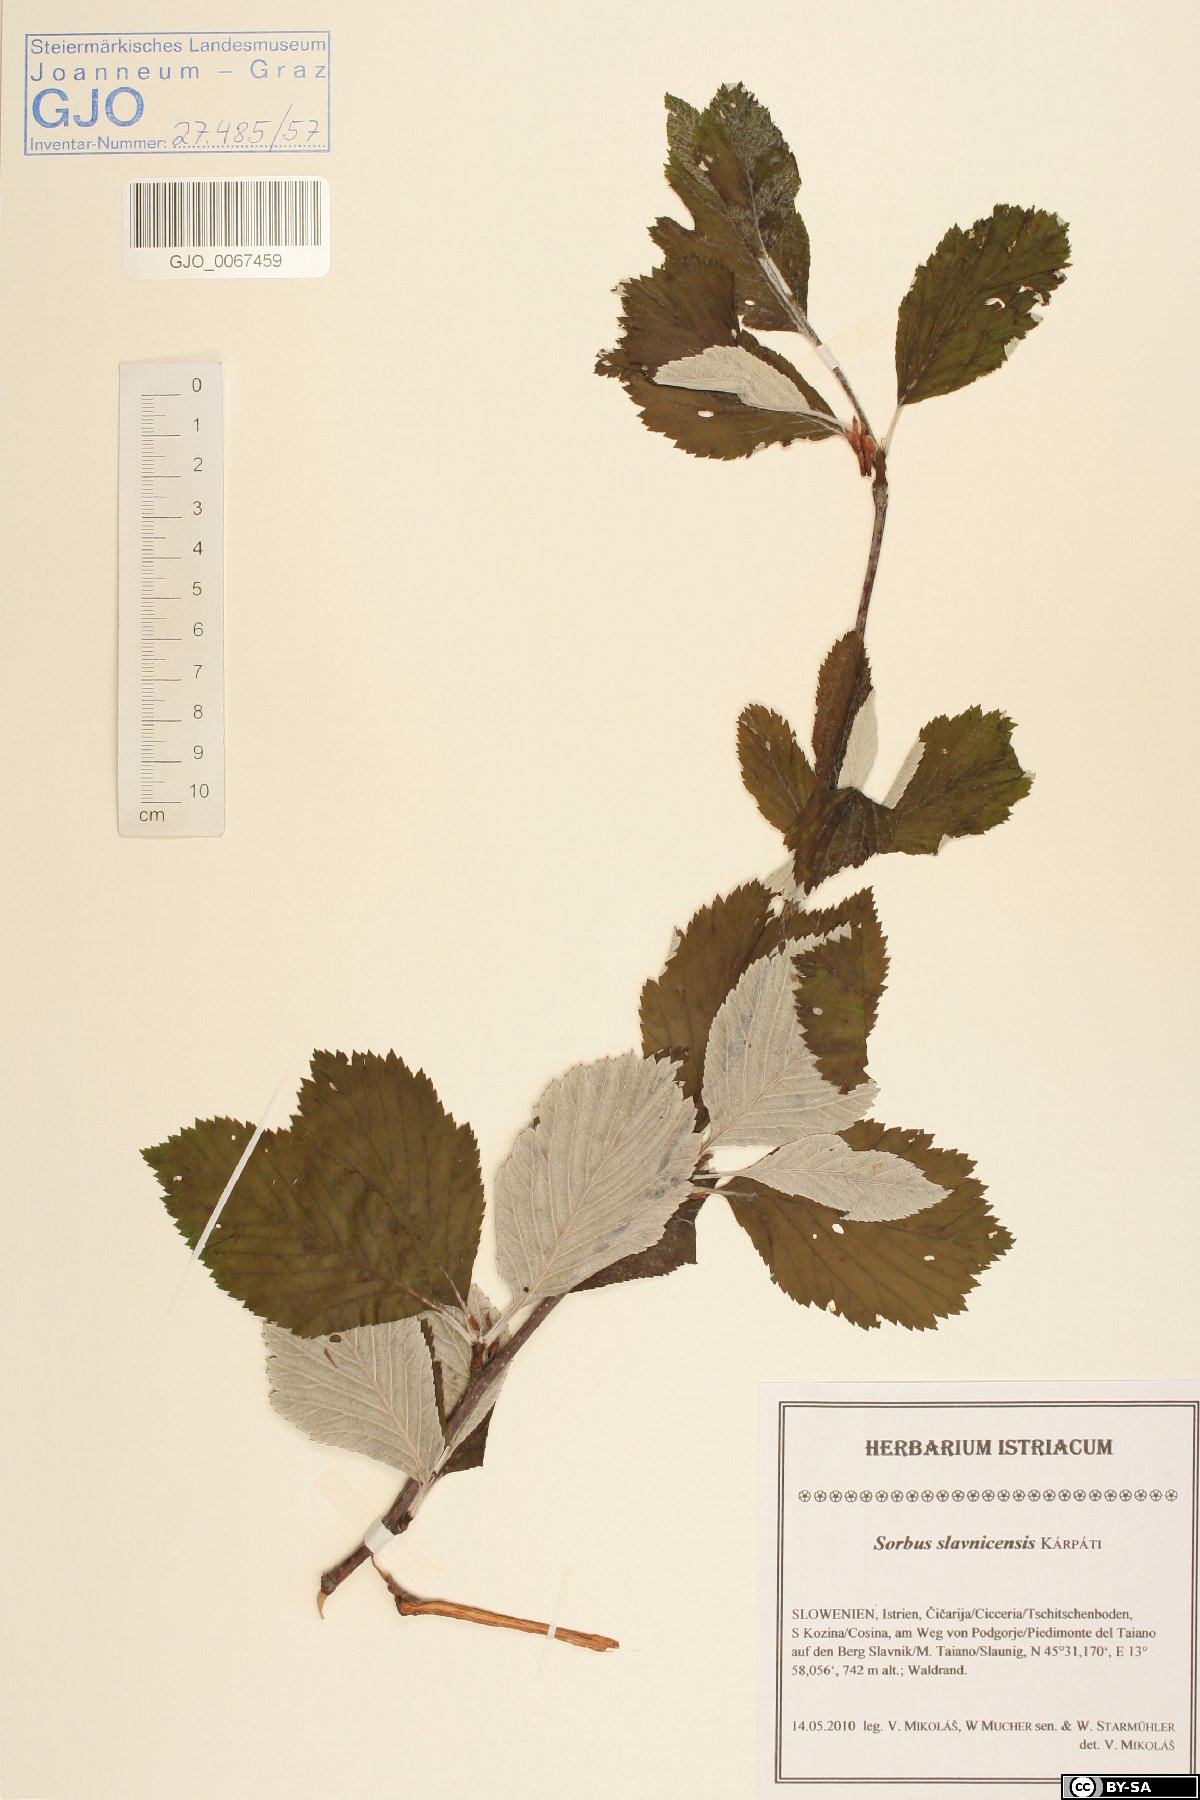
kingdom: Plantae
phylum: Tracheophyta
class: Magnoliopsida
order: Rosales
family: Rosaceae
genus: Karpatiosorbus
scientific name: Karpatiosorbus slavnicensis
